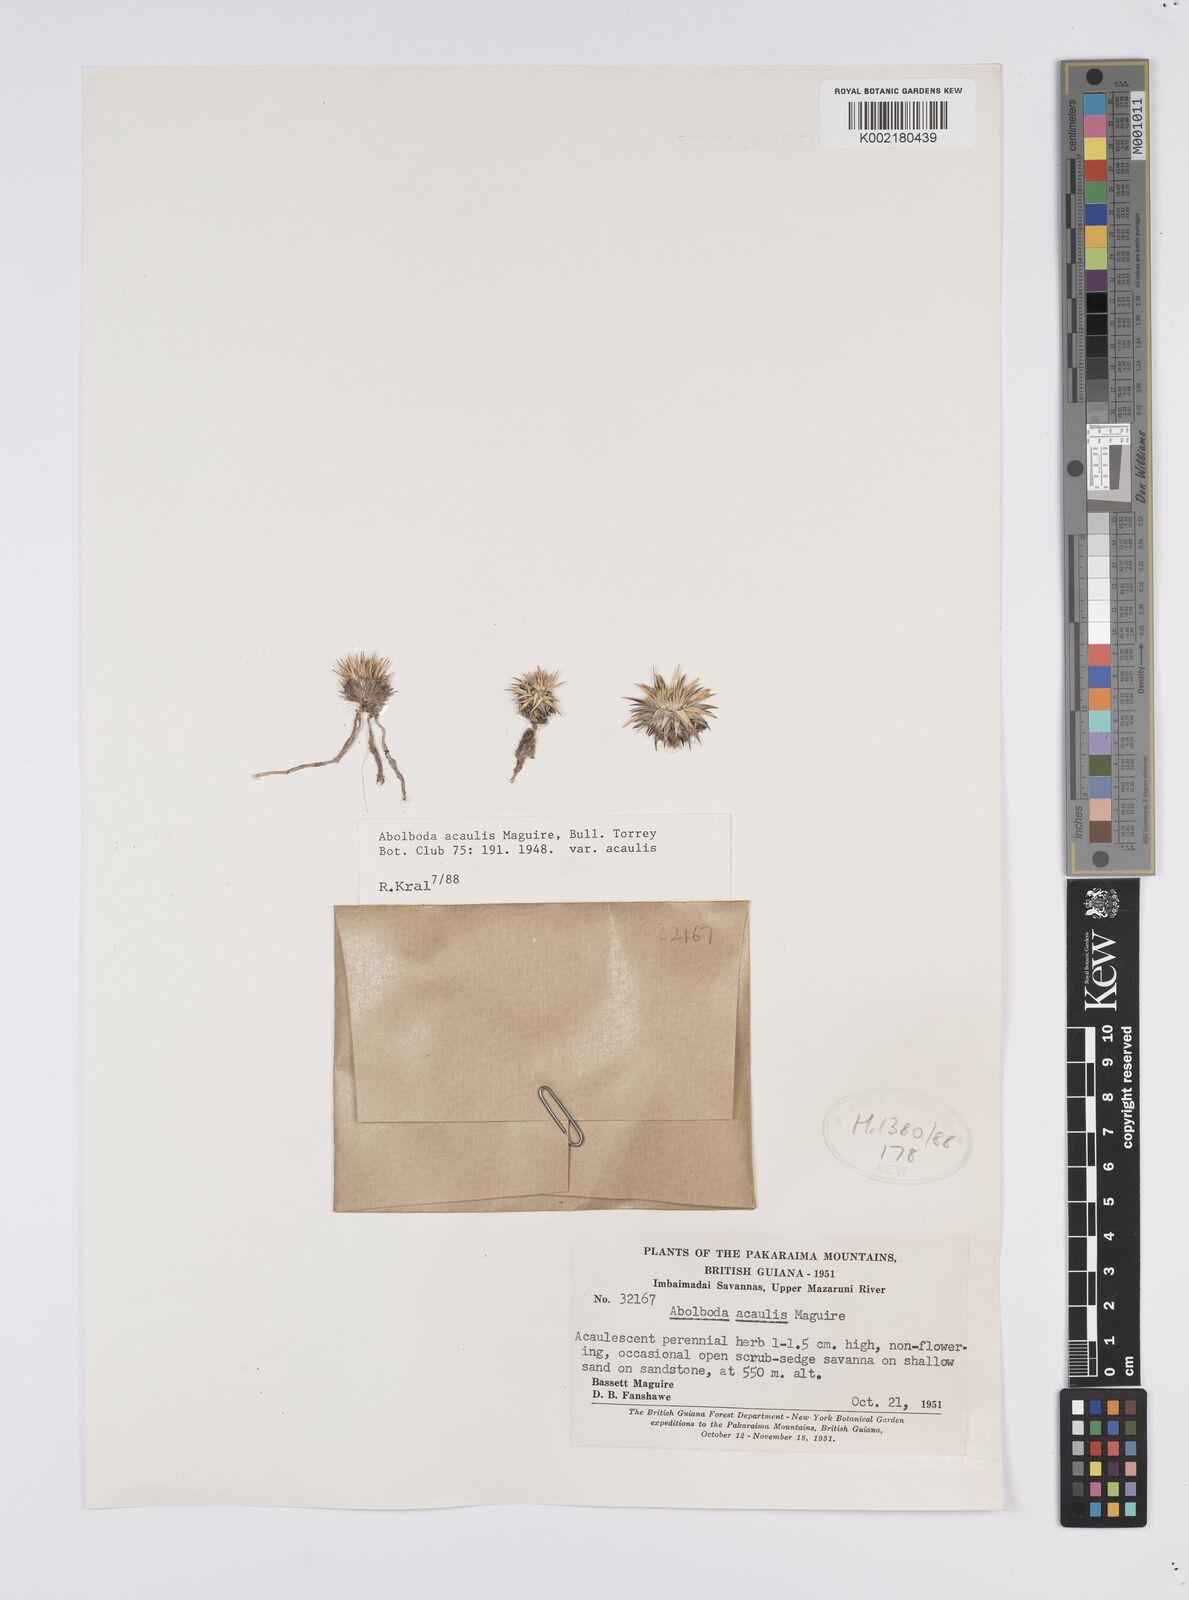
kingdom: Plantae
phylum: Tracheophyta
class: Liliopsida
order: Poales
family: Xyridaceae
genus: Abolboda
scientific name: Abolboda acaulis
